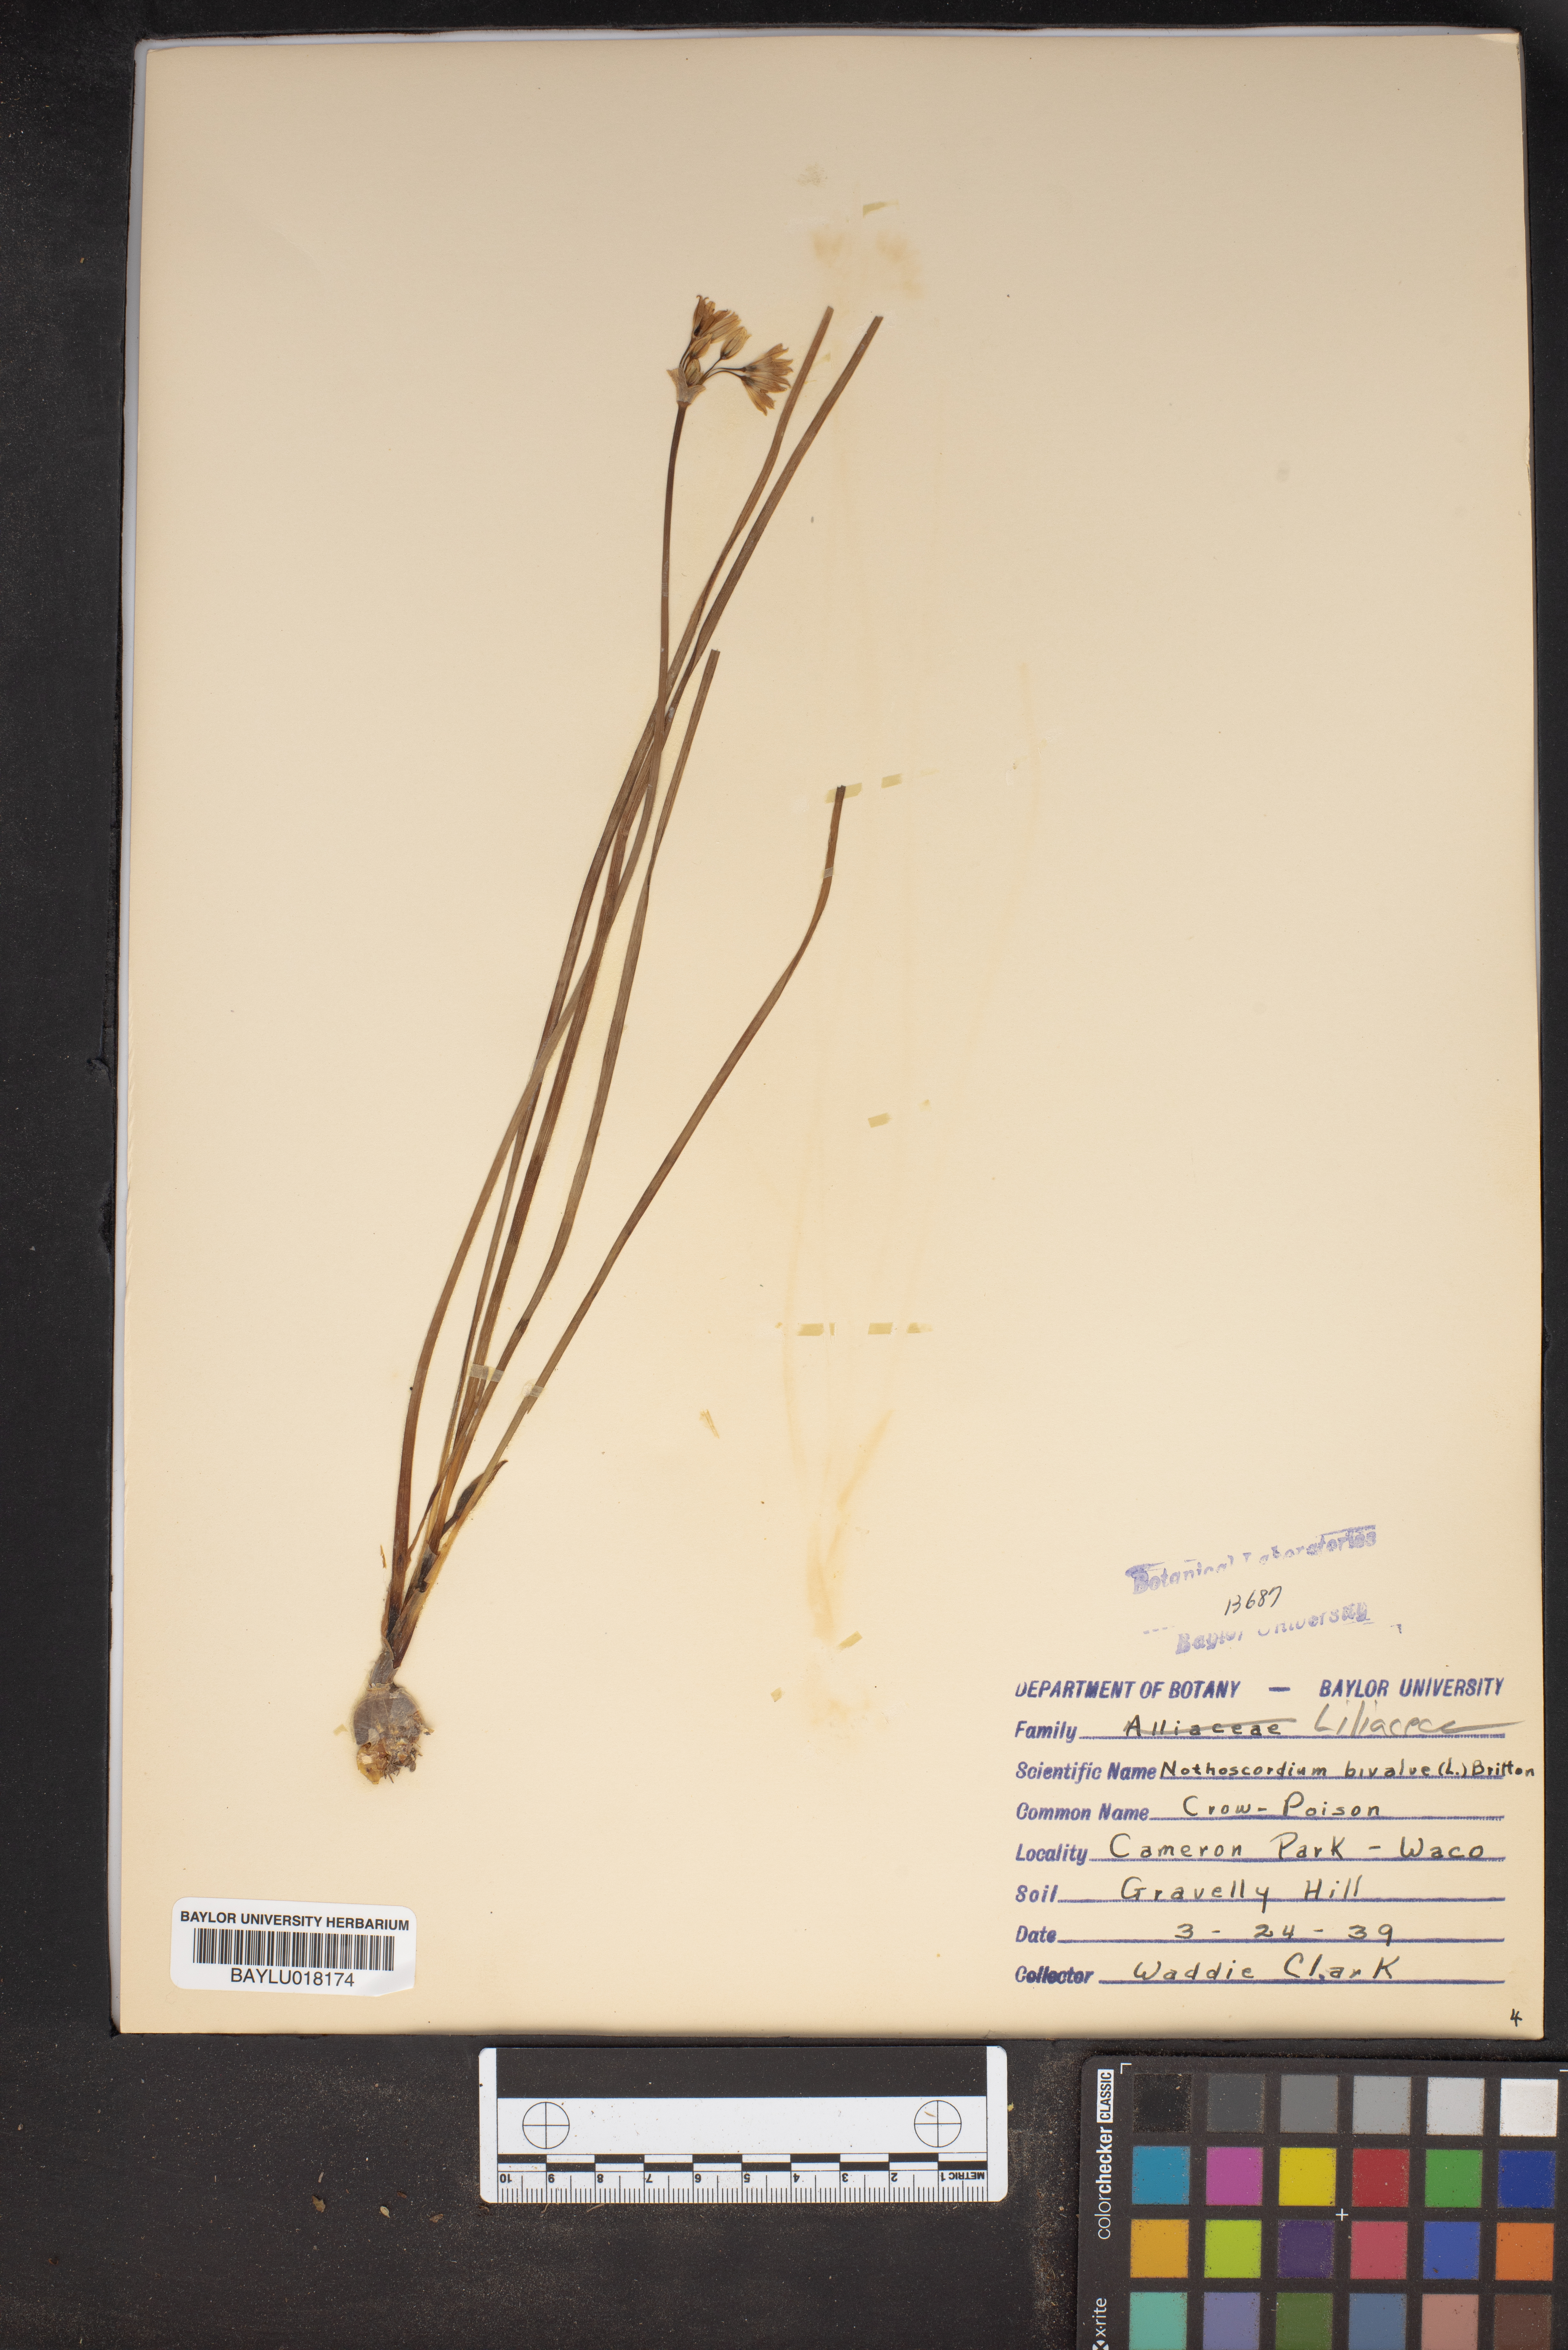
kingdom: Plantae
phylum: Tracheophyta
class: Liliopsida
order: Asparagales
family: Amaryllidaceae
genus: Nothoscordum
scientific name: Nothoscordum bivalve
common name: Crow-poison
